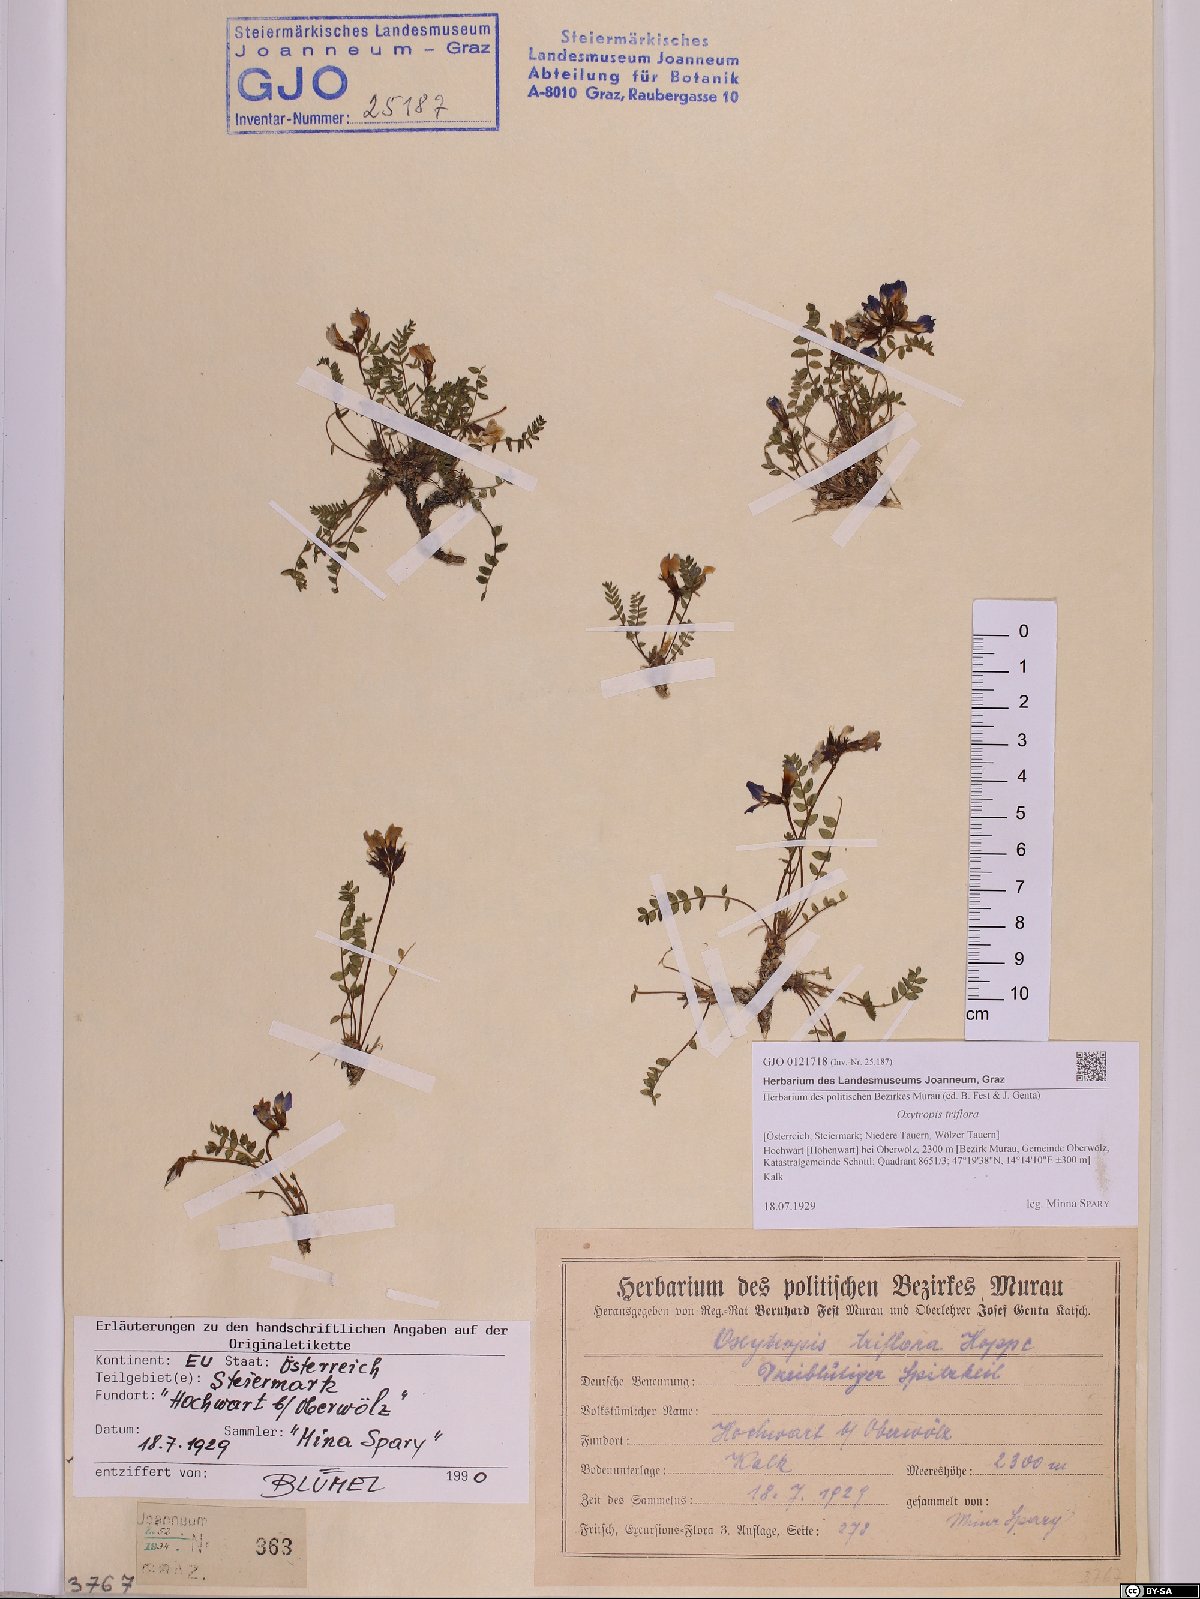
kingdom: Plantae
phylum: Tracheophyta
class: Magnoliopsida
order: Fabales
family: Fabaceae
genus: Oxytropis
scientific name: Oxytropis triflora
